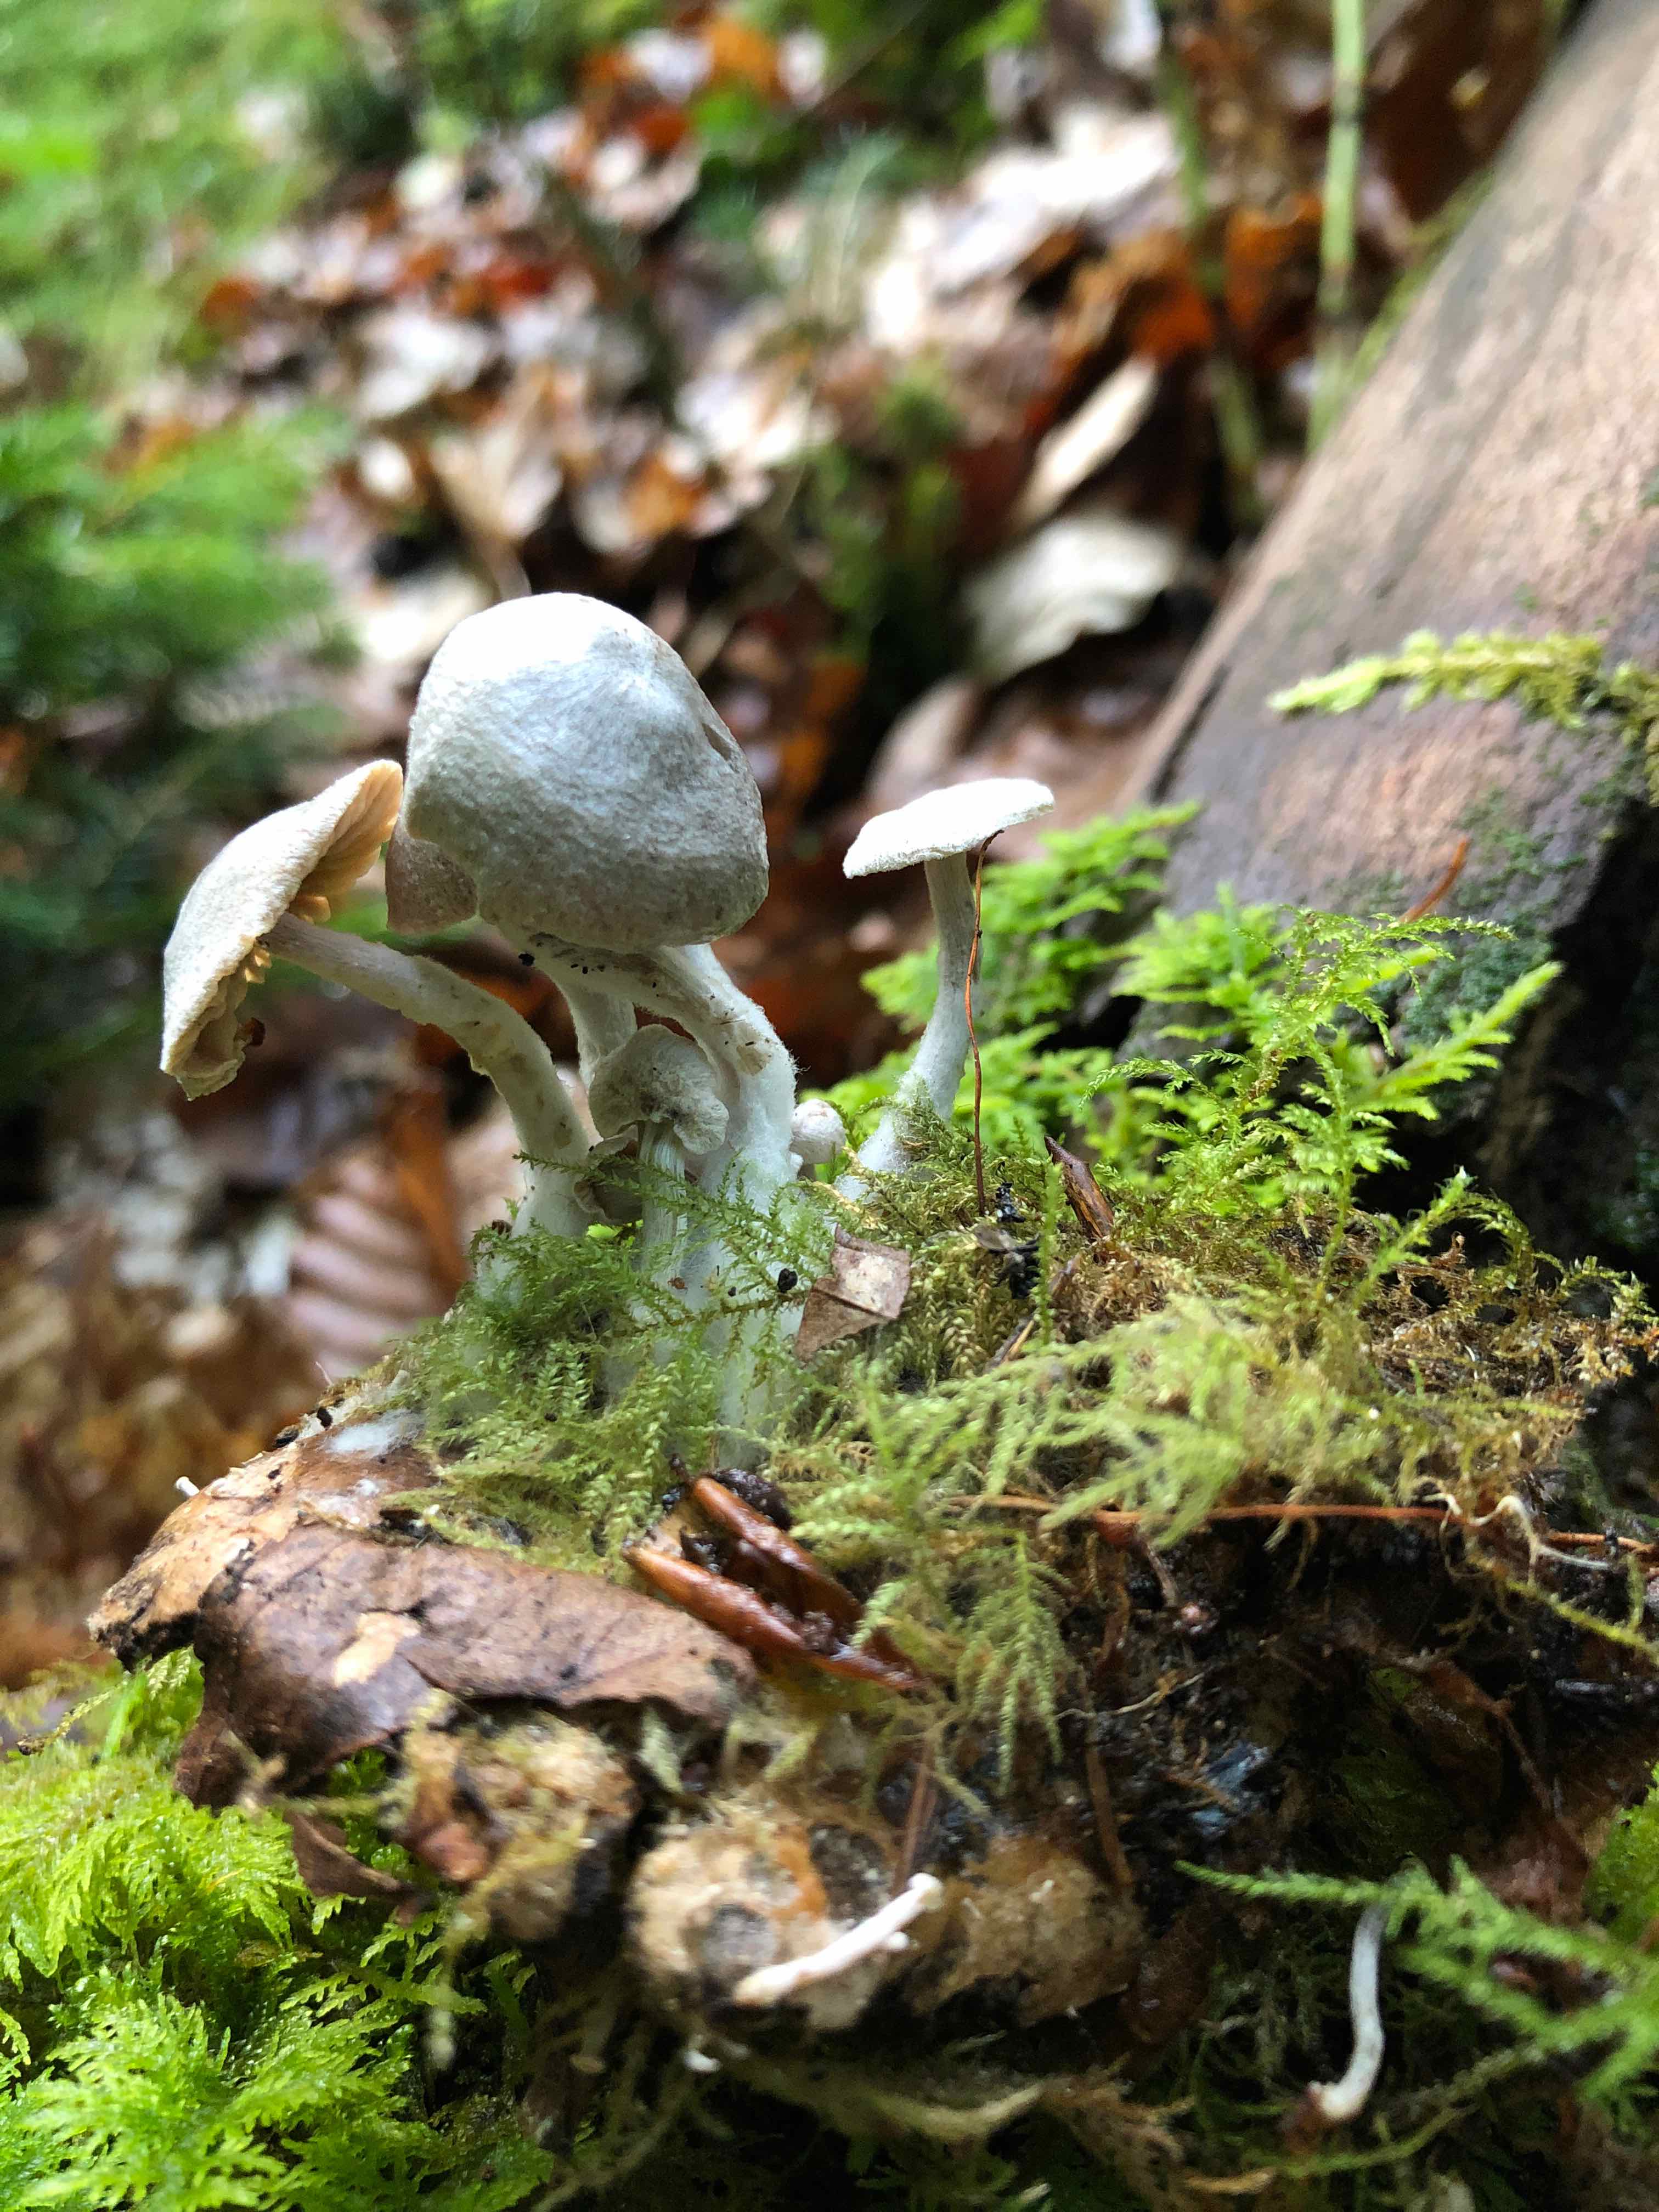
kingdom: Fungi
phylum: Basidiomycota
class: Agaricomycetes
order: Agaricales
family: Lyophyllaceae
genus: Asterophora
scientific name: Asterophora parasitica
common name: grå snyltehat
